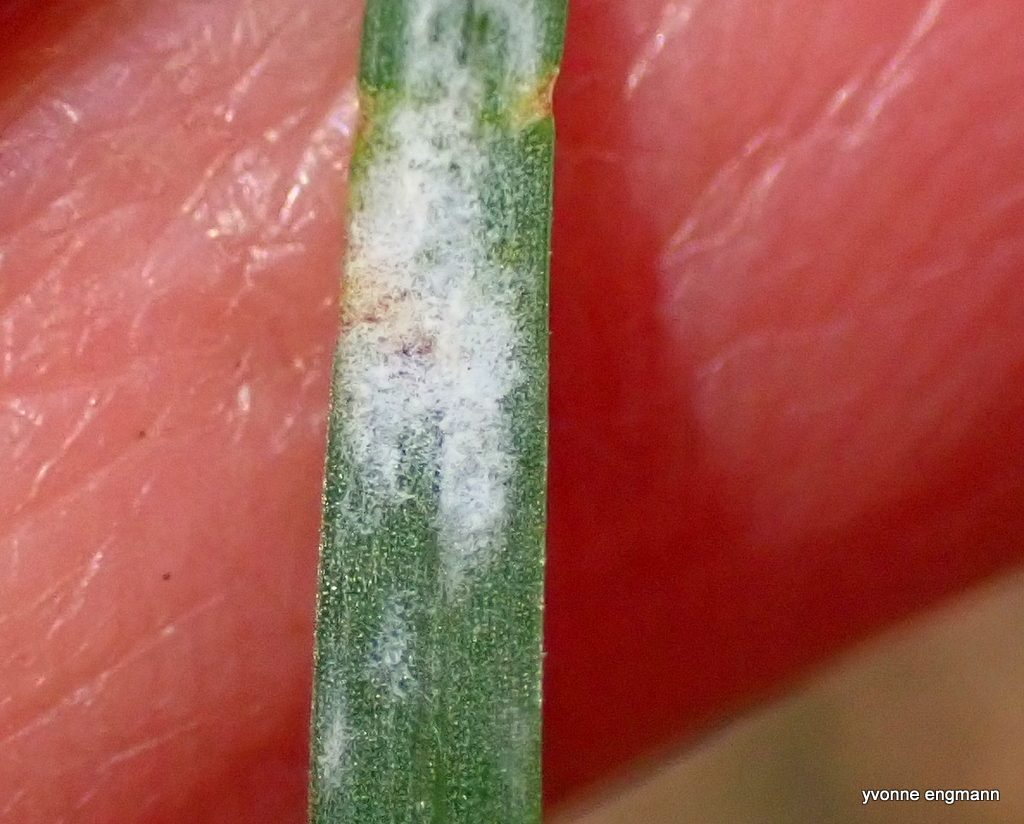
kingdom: Fungi
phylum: Ascomycota
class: Leotiomycetes
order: Helotiales
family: Erysiphaceae
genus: Blumeria
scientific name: Blumeria graminis
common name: græs-meldug
